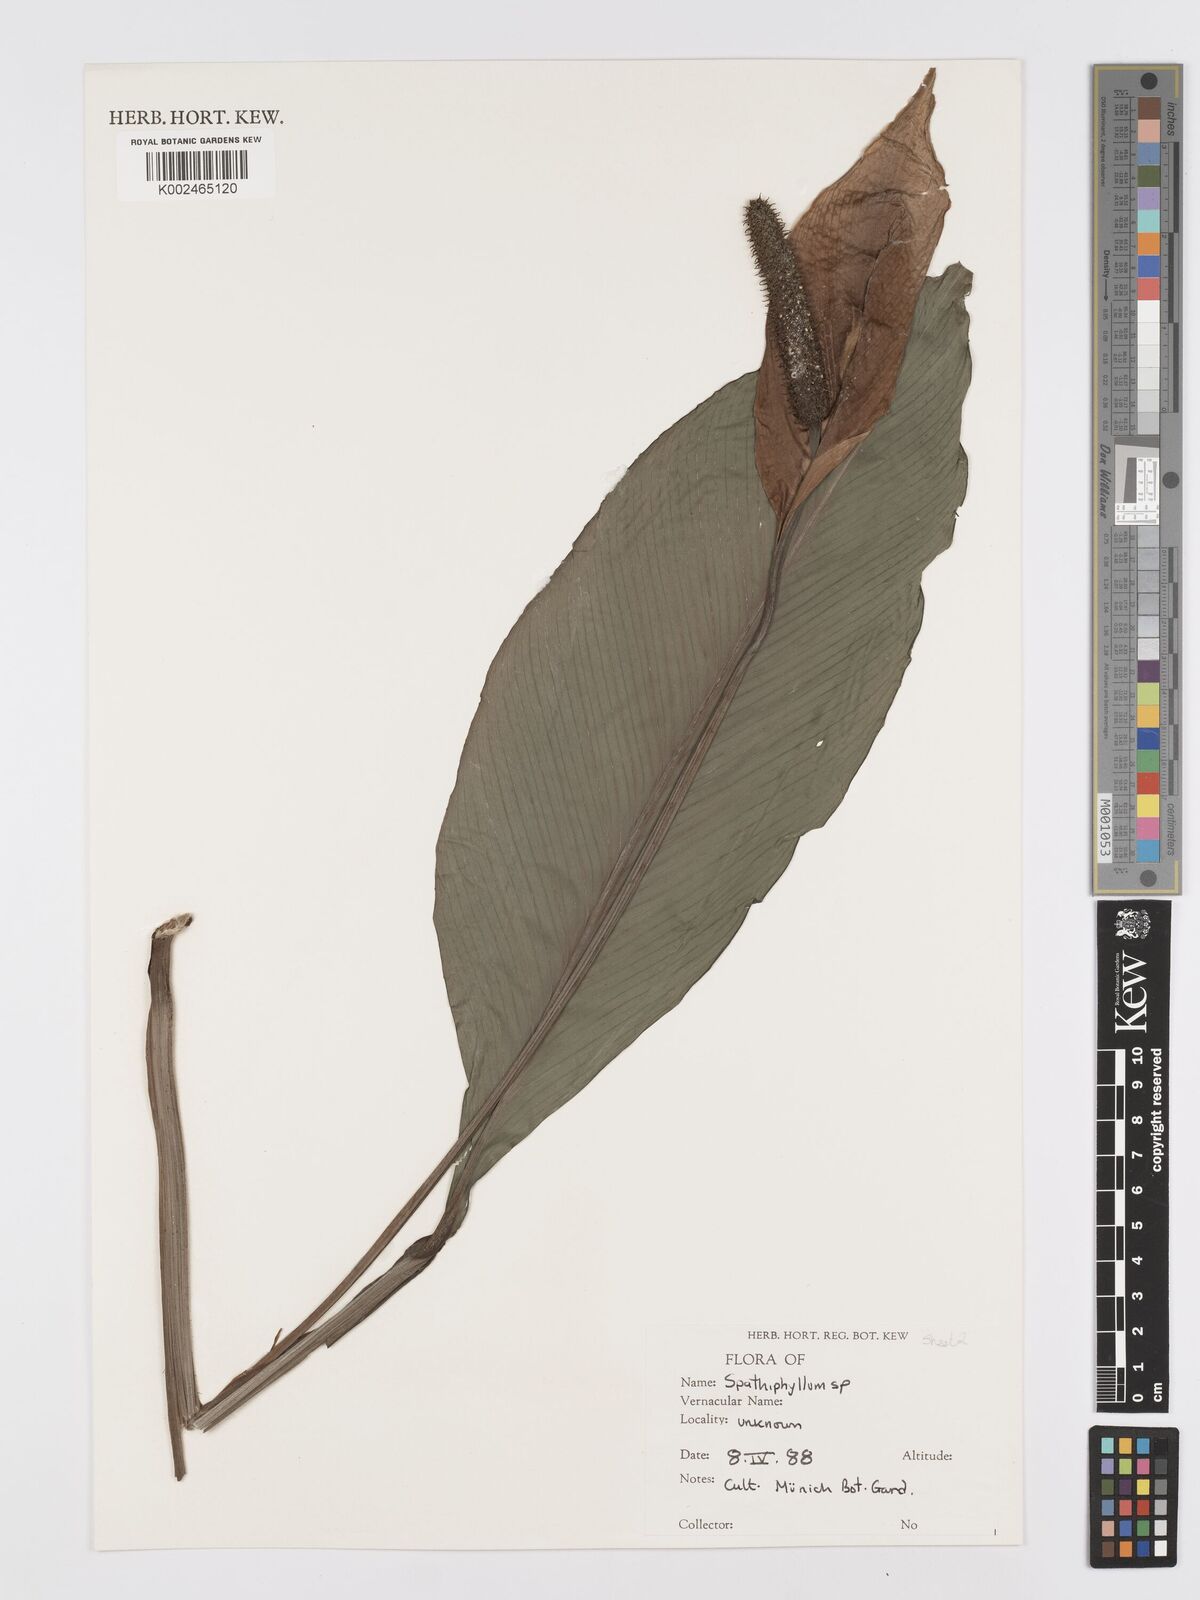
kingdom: Plantae
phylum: Tracheophyta
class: Liliopsida
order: Alismatales
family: Araceae
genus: Spathiphyllum
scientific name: Spathiphyllum
